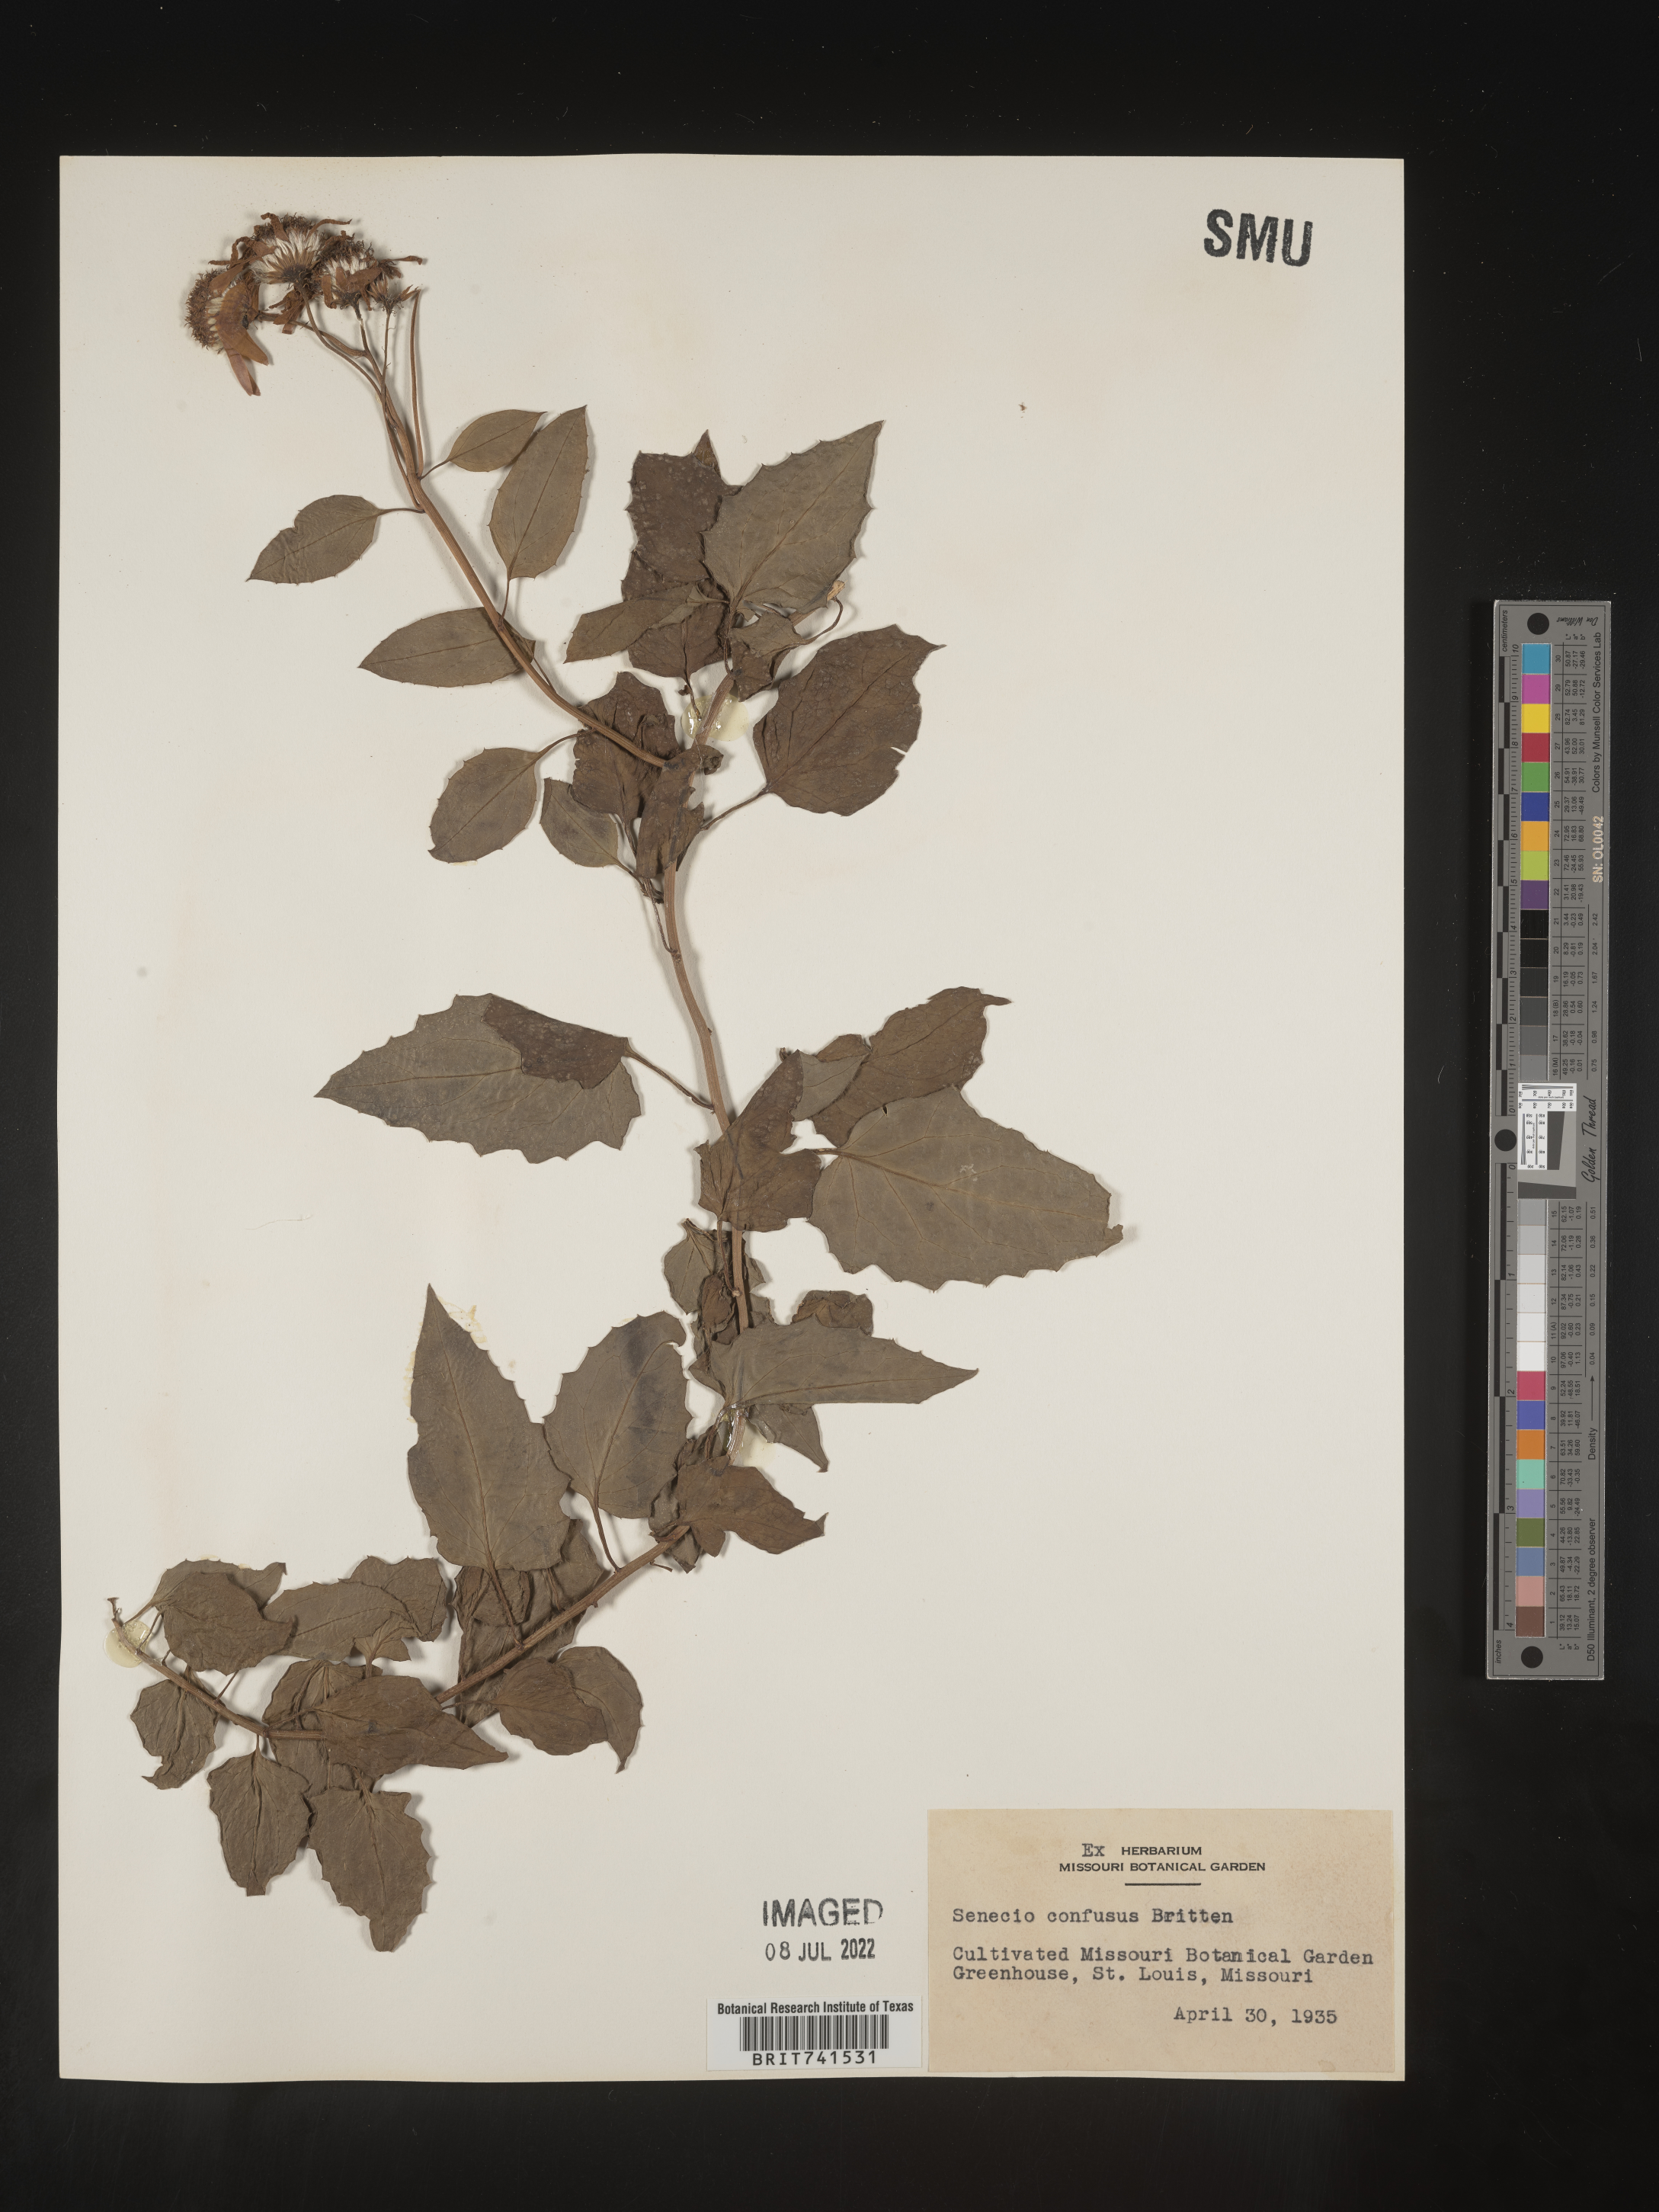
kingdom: Plantae
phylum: Tracheophyta
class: Magnoliopsida
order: Asterales
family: Asteraceae
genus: Senecio
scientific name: Senecio
